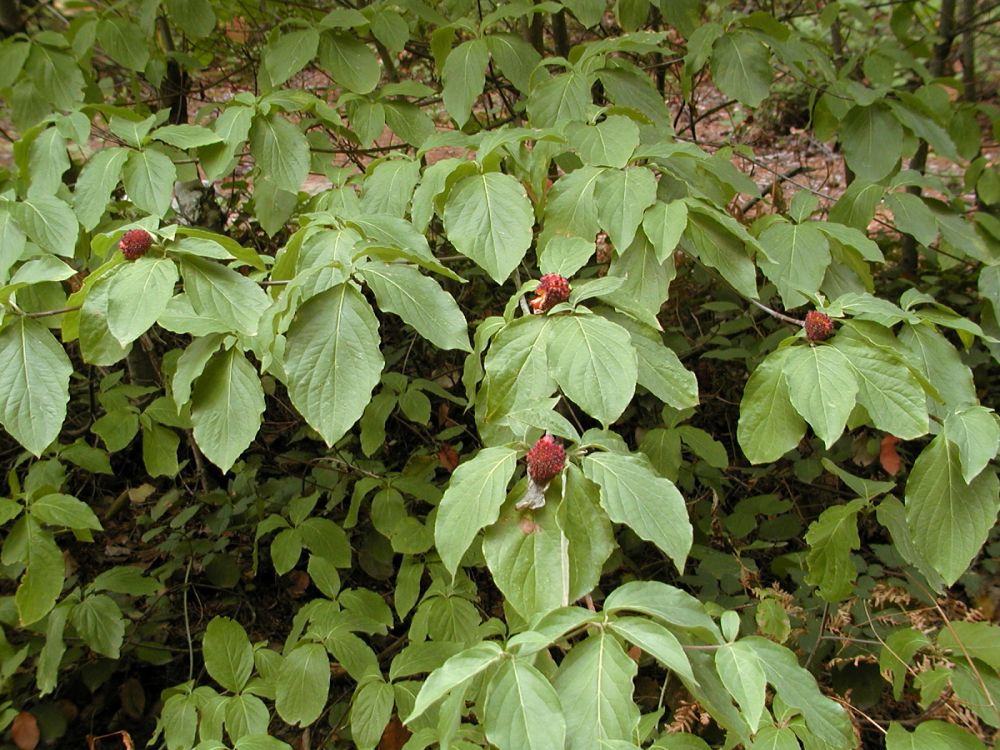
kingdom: Plantae
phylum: Tracheophyta
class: Magnoliopsida
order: Cornales
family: Cornaceae
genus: Cornus
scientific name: Cornus nuttallii
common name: Pacific dogwood
